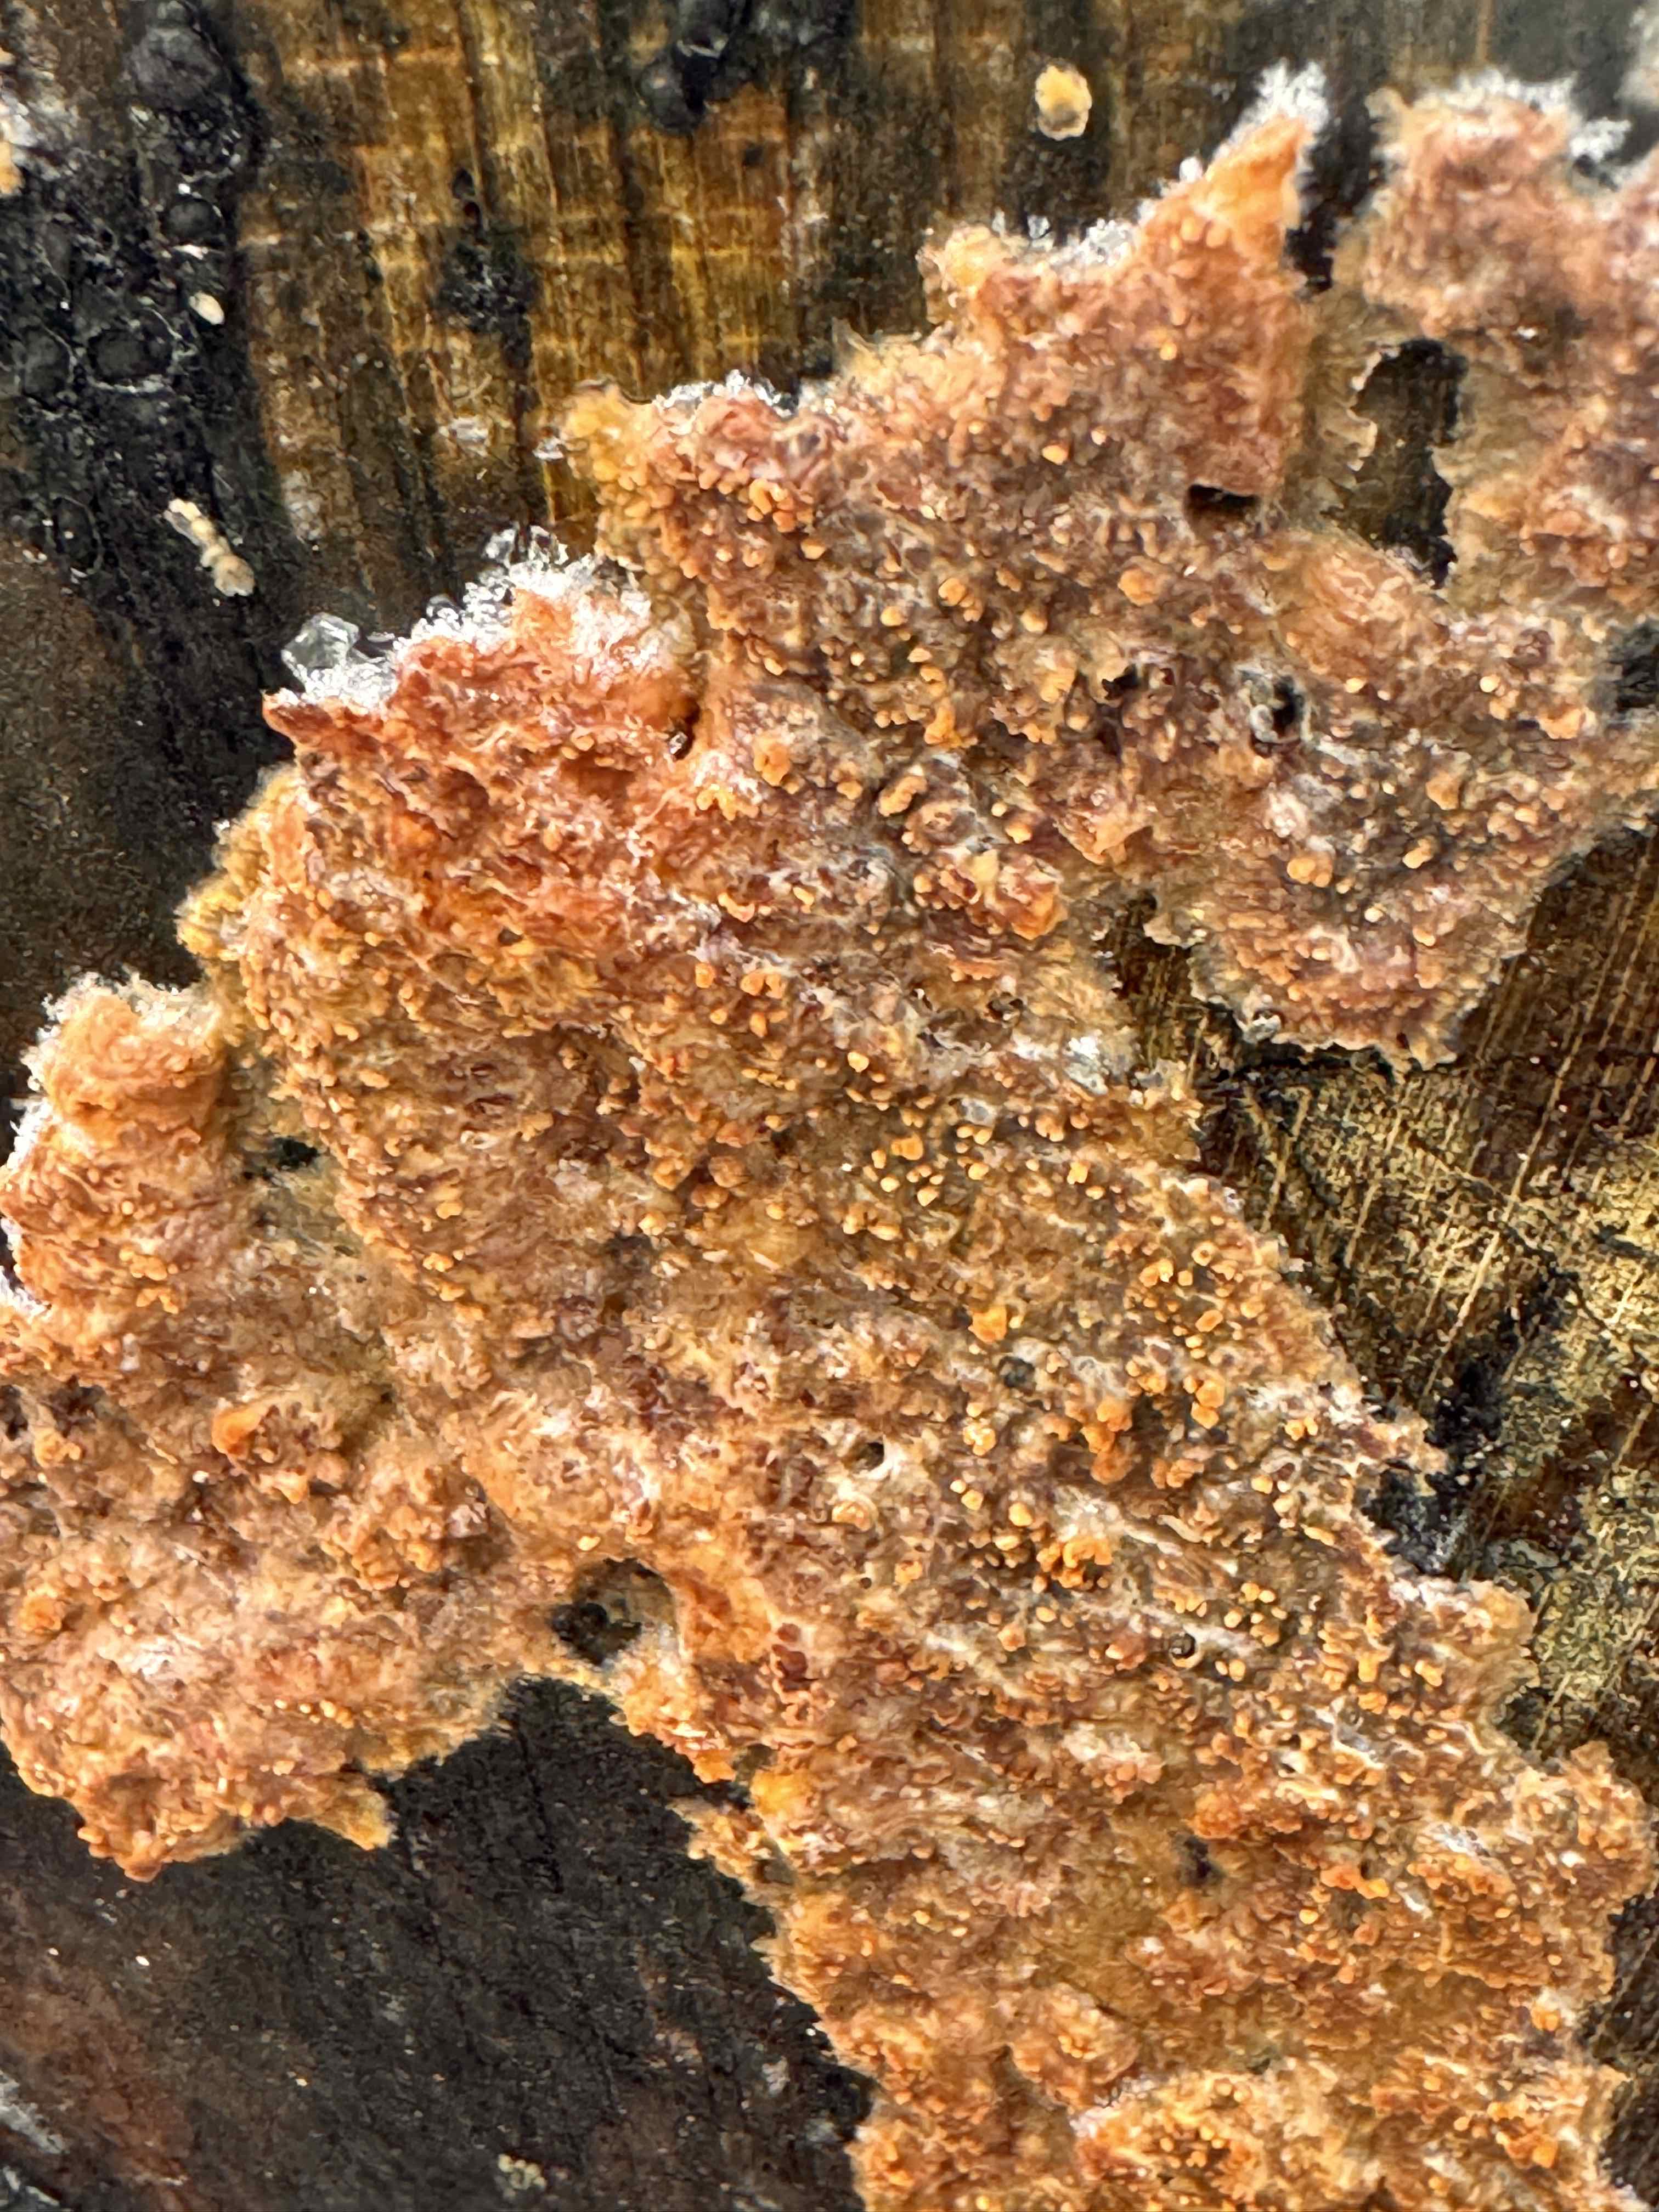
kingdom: Fungi
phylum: Basidiomycota
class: Agaricomycetes
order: Polyporales
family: Meruliaceae
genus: Phlebia
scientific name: Phlebia radiata
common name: stråle-åresvamp
